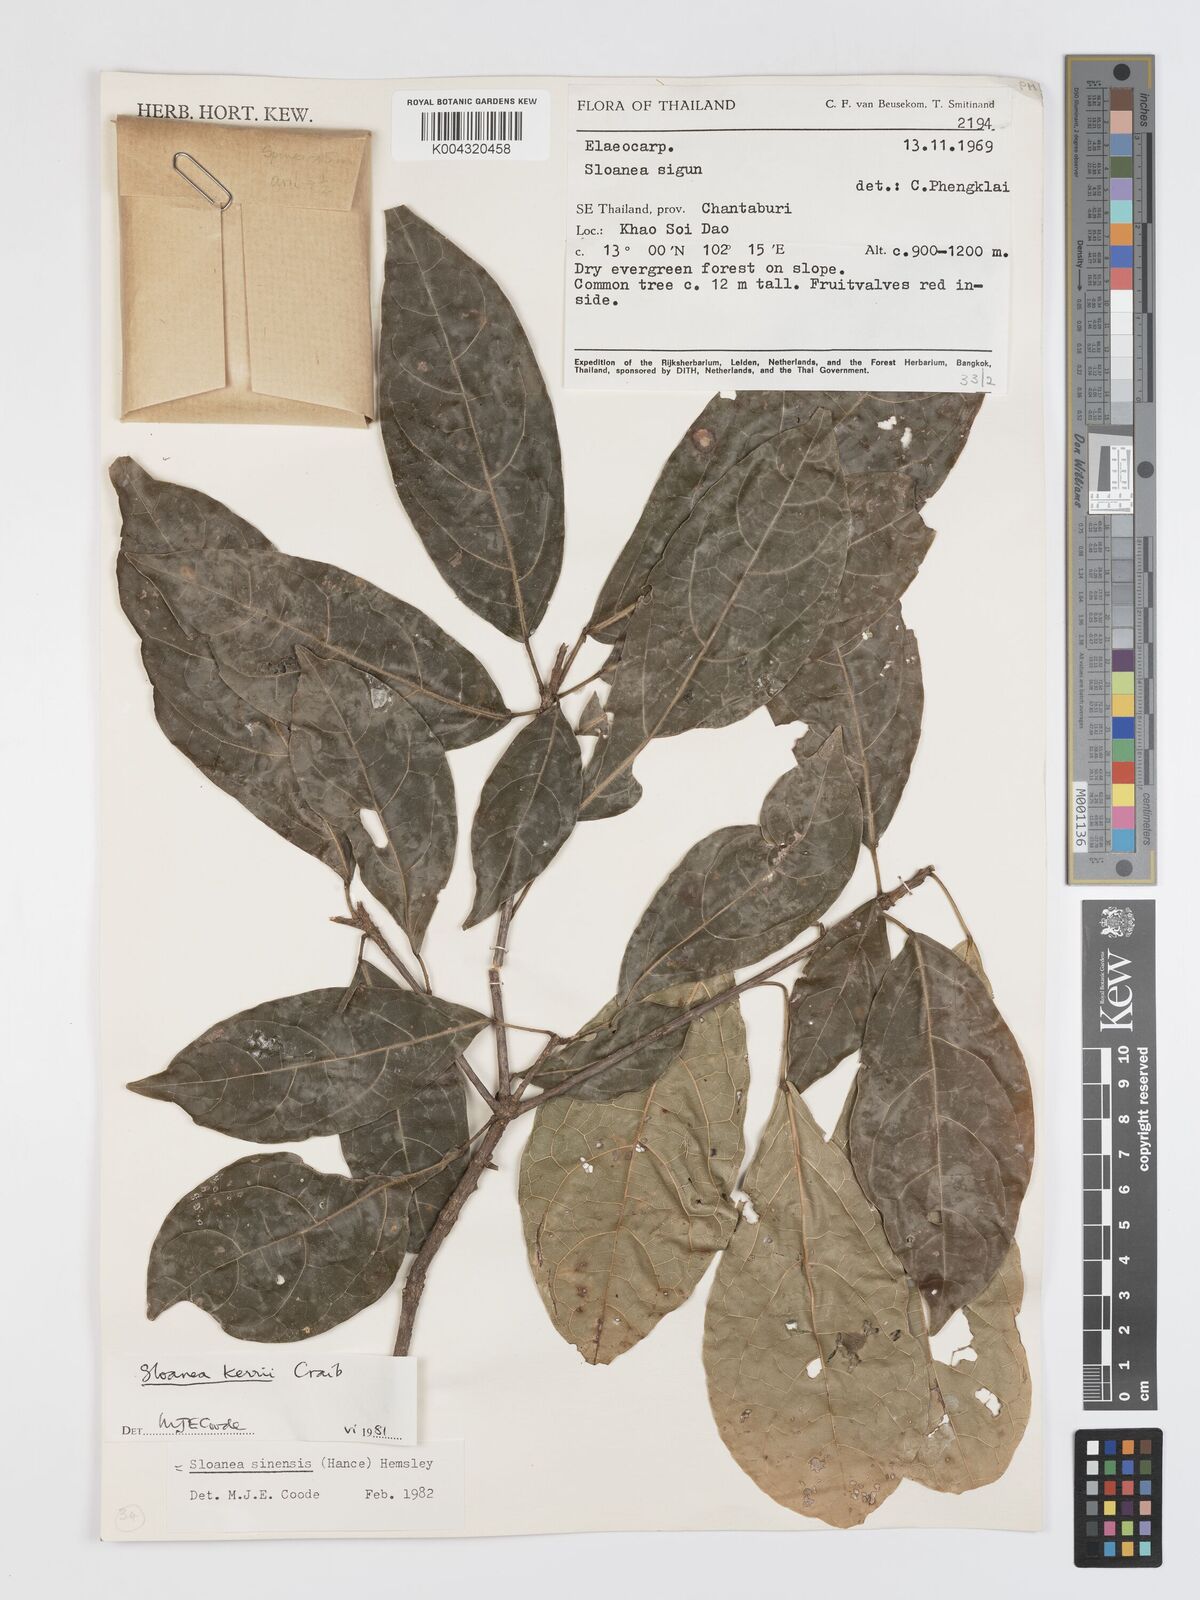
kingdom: Plantae
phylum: Tracheophyta
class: Magnoliopsida
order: Oxalidales
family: Elaeocarpaceae
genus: Sloanea
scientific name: Sloanea sinensis
